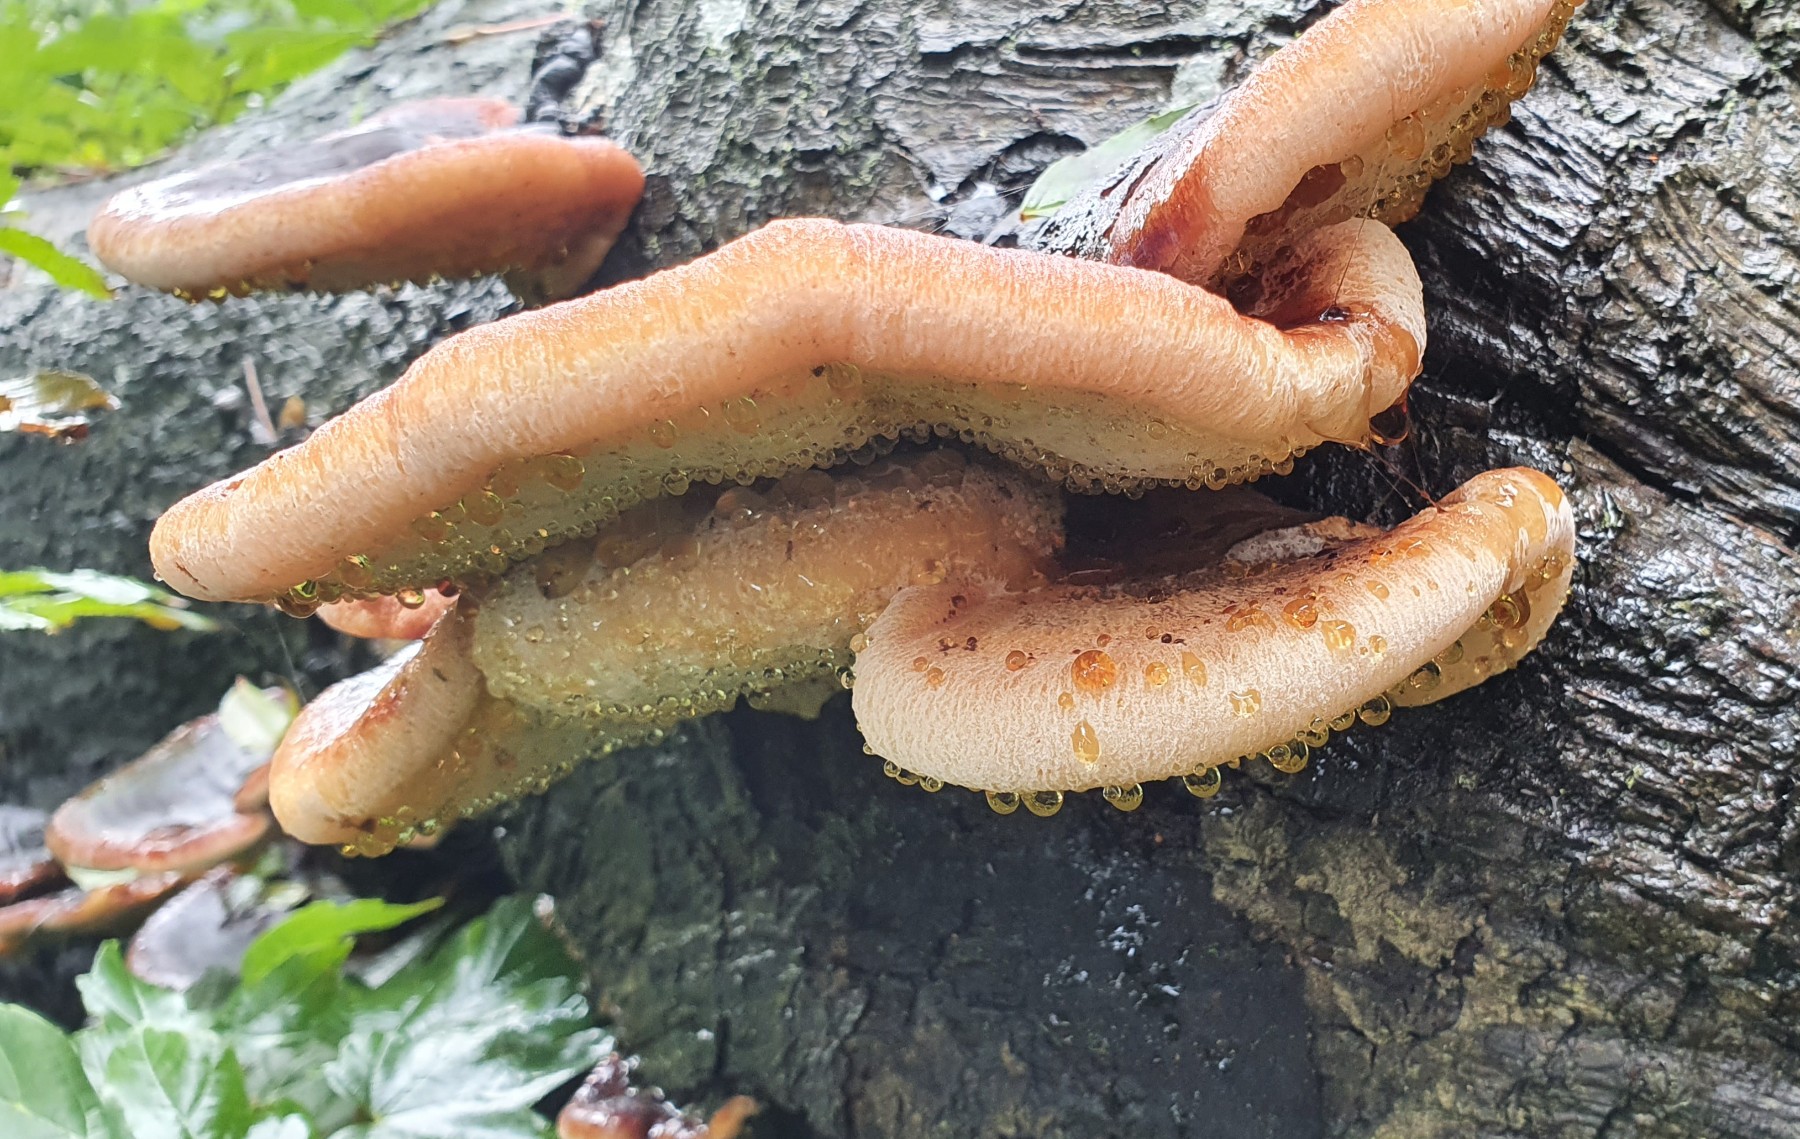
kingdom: Fungi
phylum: Basidiomycota
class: Agaricomycetes
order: Polyporales
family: Ischnodermataceae
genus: Ischnoderma
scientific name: Ischnoderma resinosum
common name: løv-tjæreporesvamp
